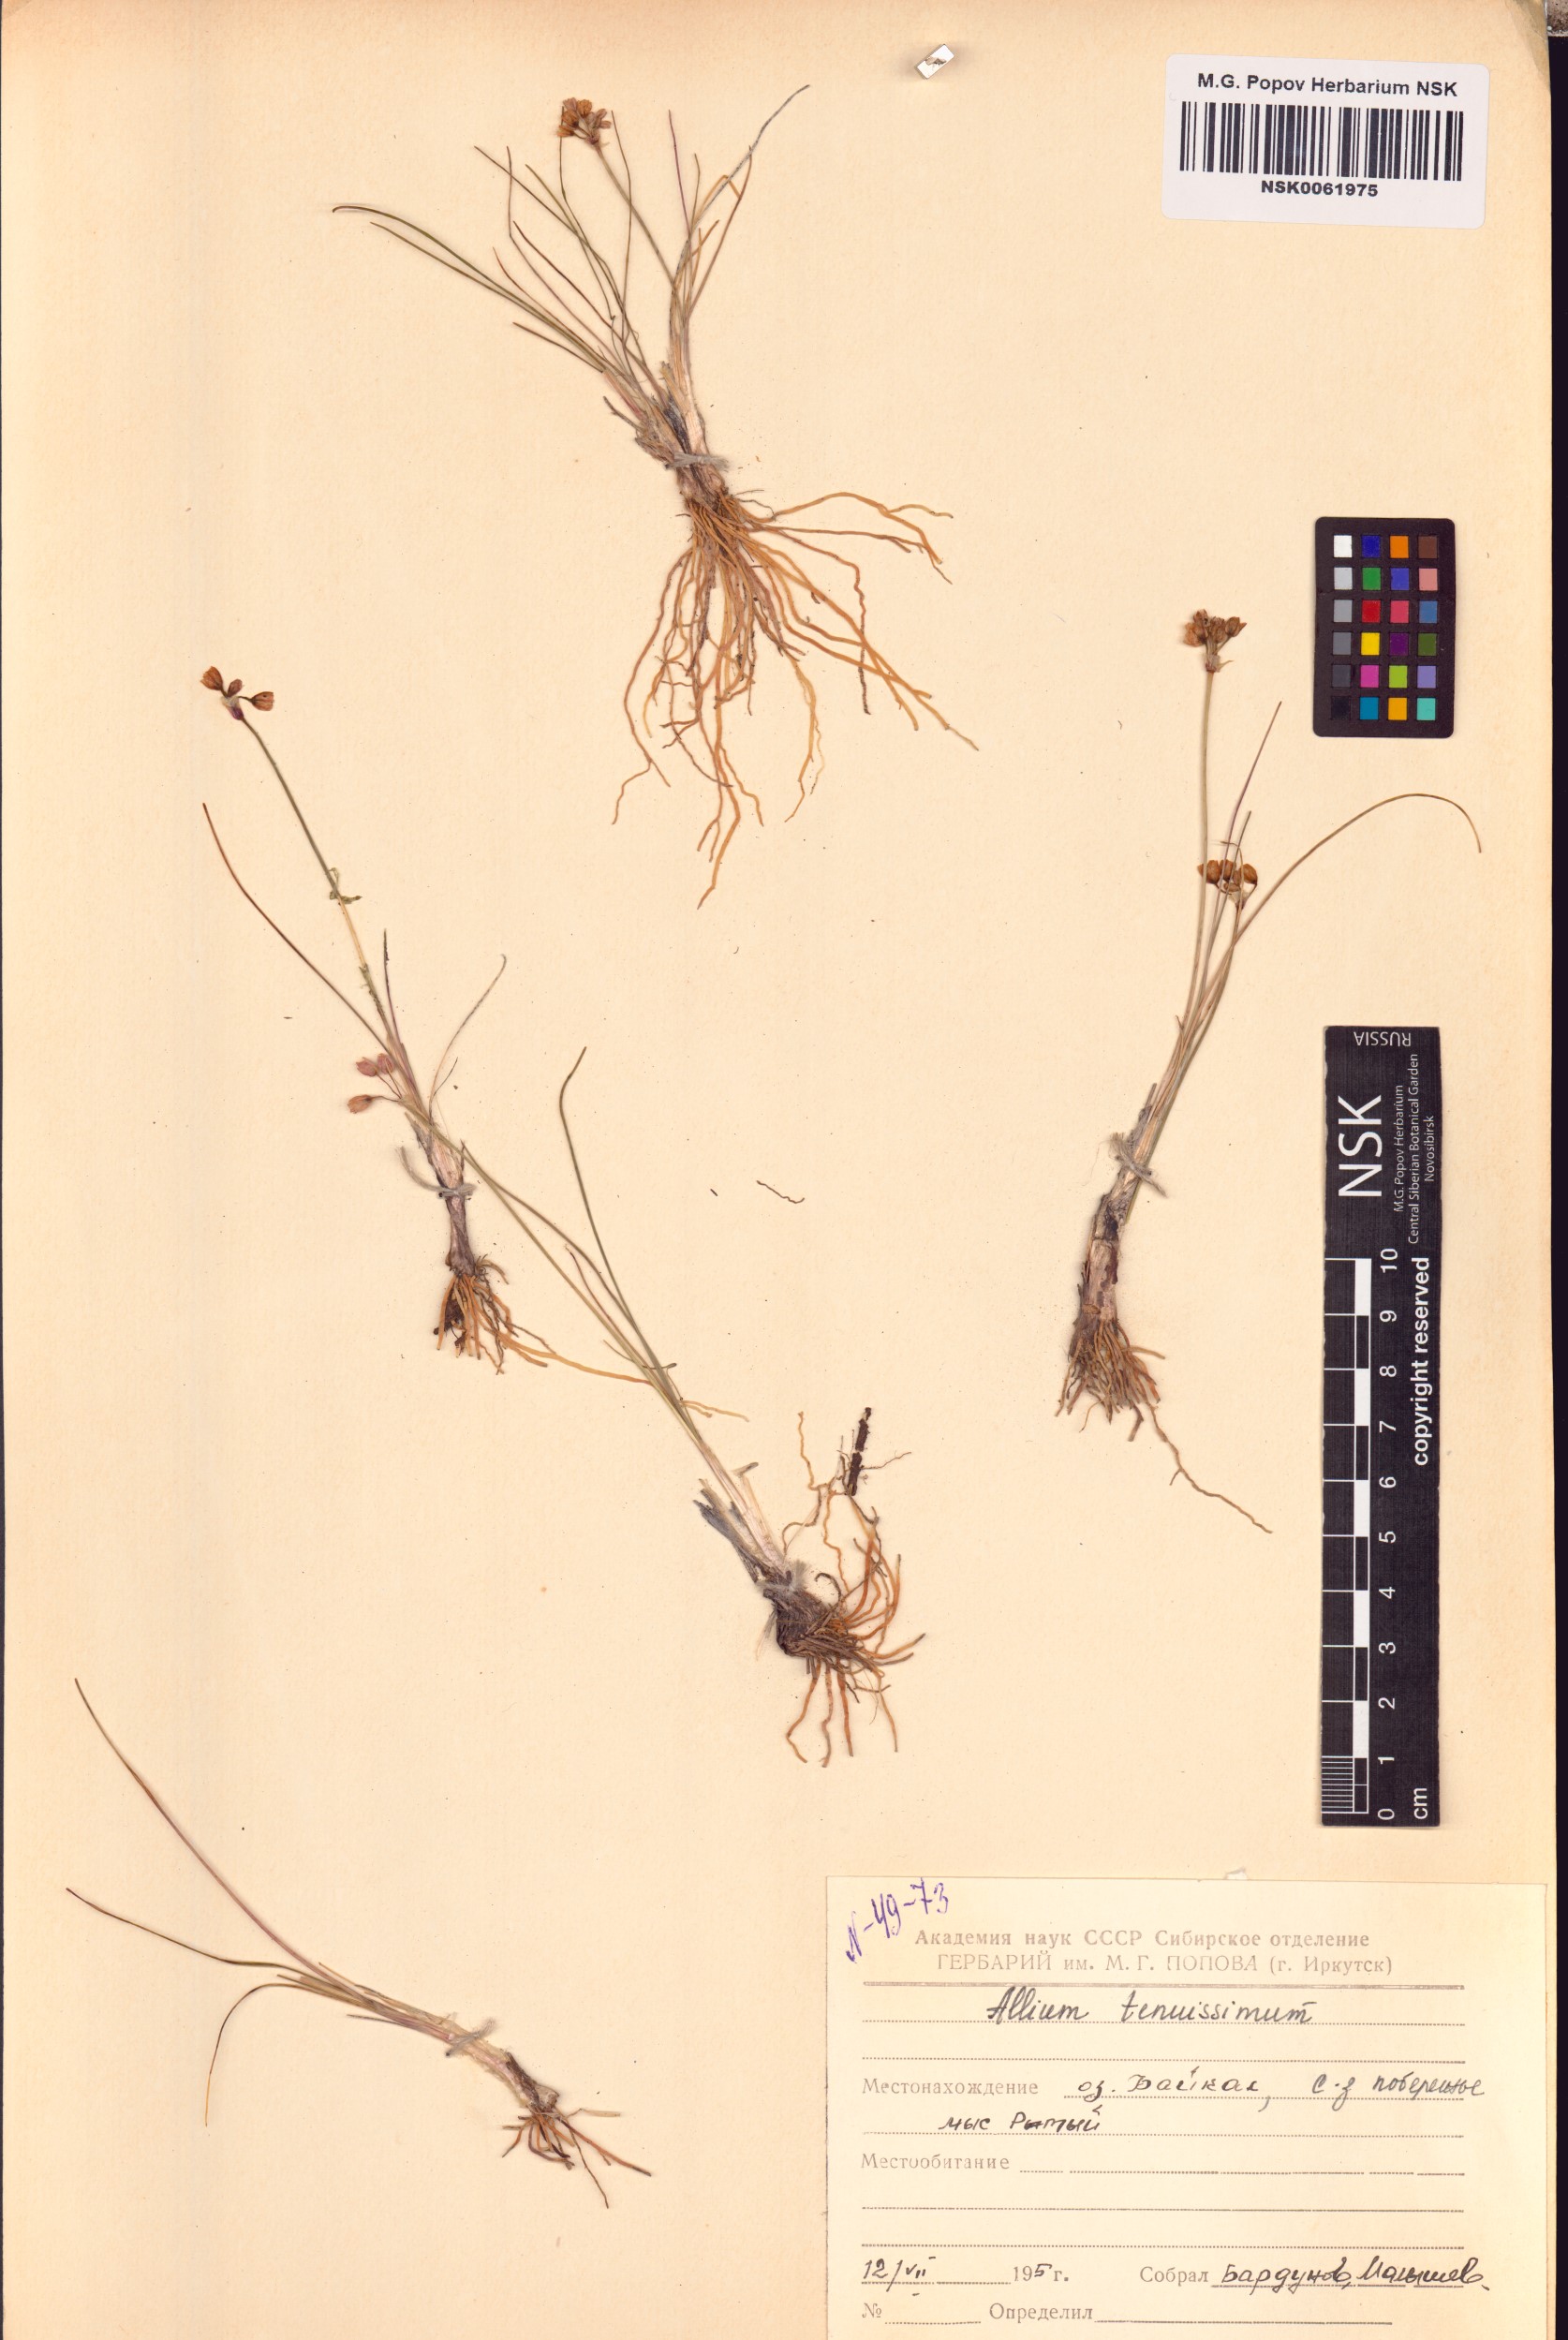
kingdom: Plantae
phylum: Tracheophyta
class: Liliopsida
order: Asparagales
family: Amaryllidaceae
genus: Allium
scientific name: Allium tenuissimum
